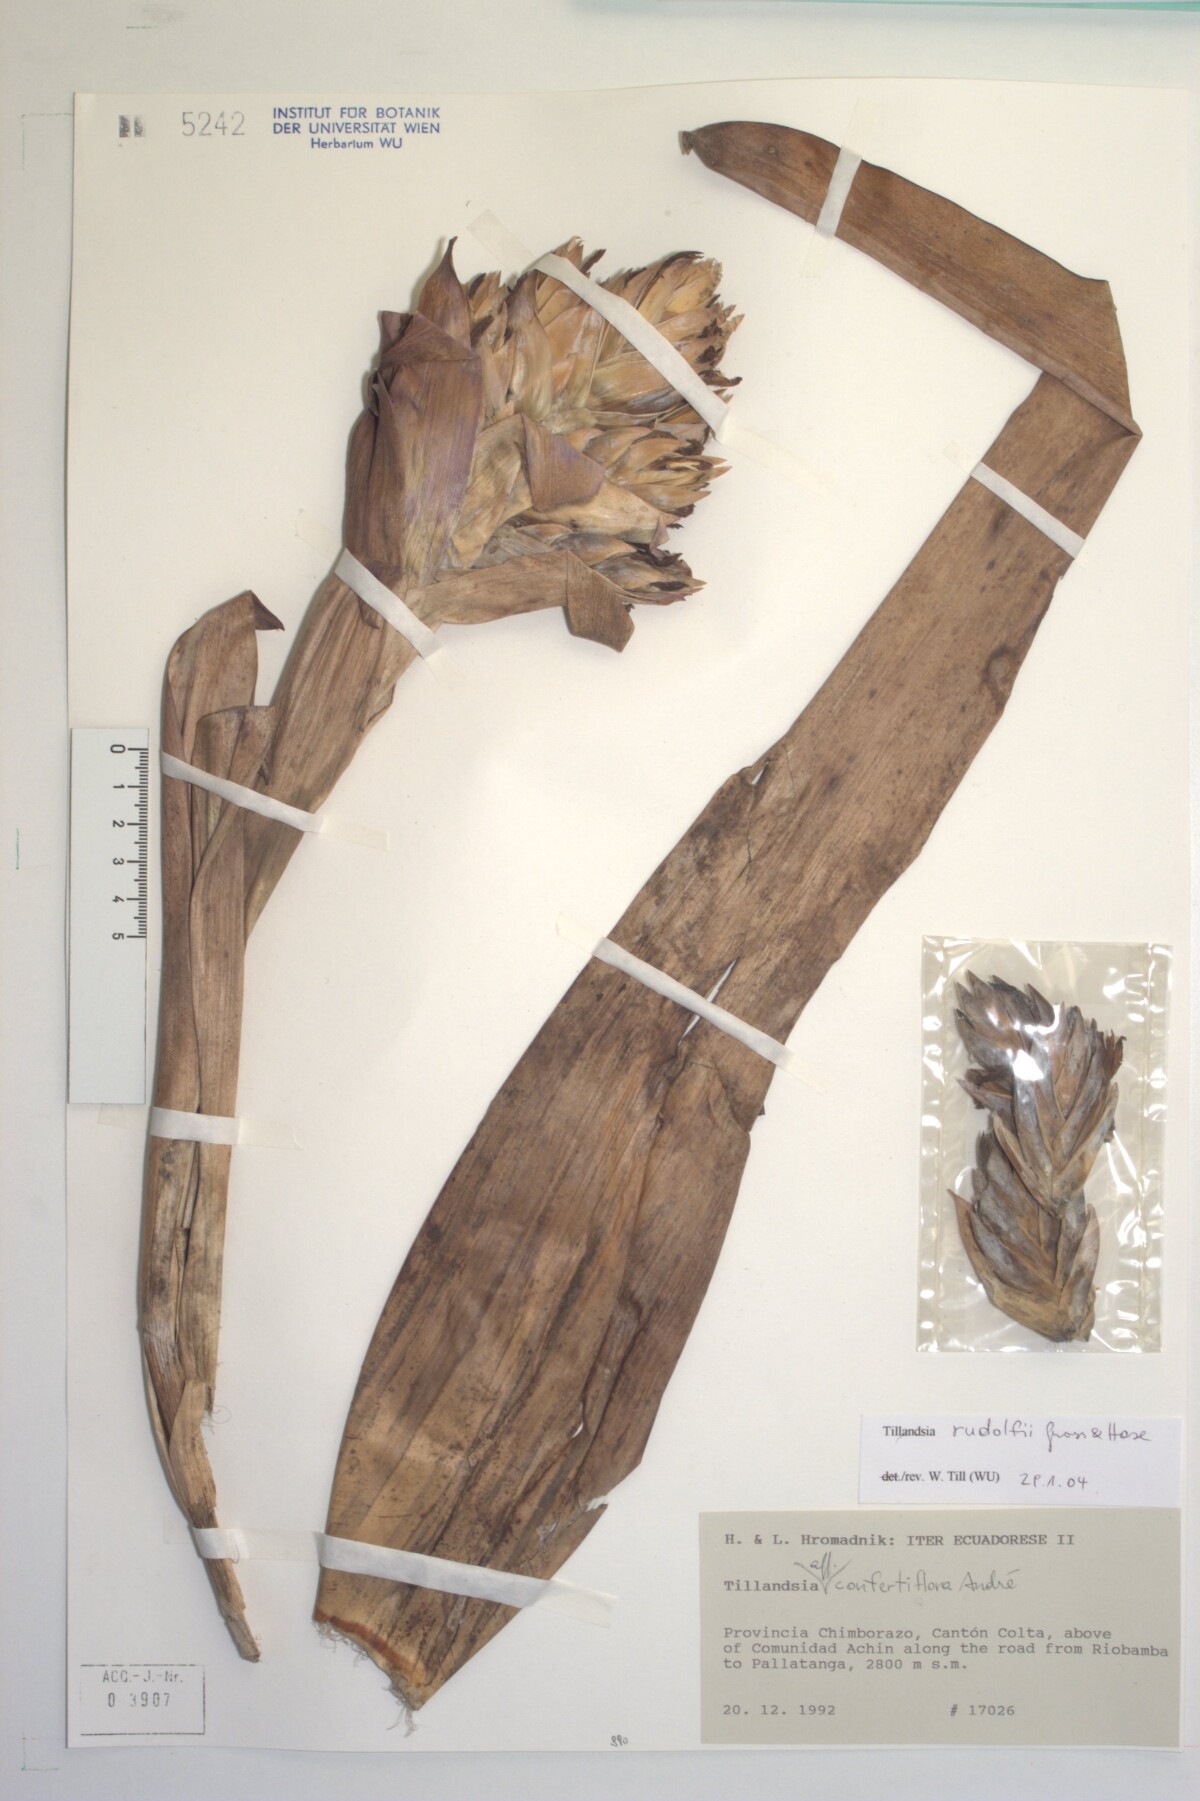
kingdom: Plantae
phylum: Tracheophyta
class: Liliopsida
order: Poales
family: Bromeliaceae
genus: Tillandsia
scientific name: Tillandsia rudolfii
